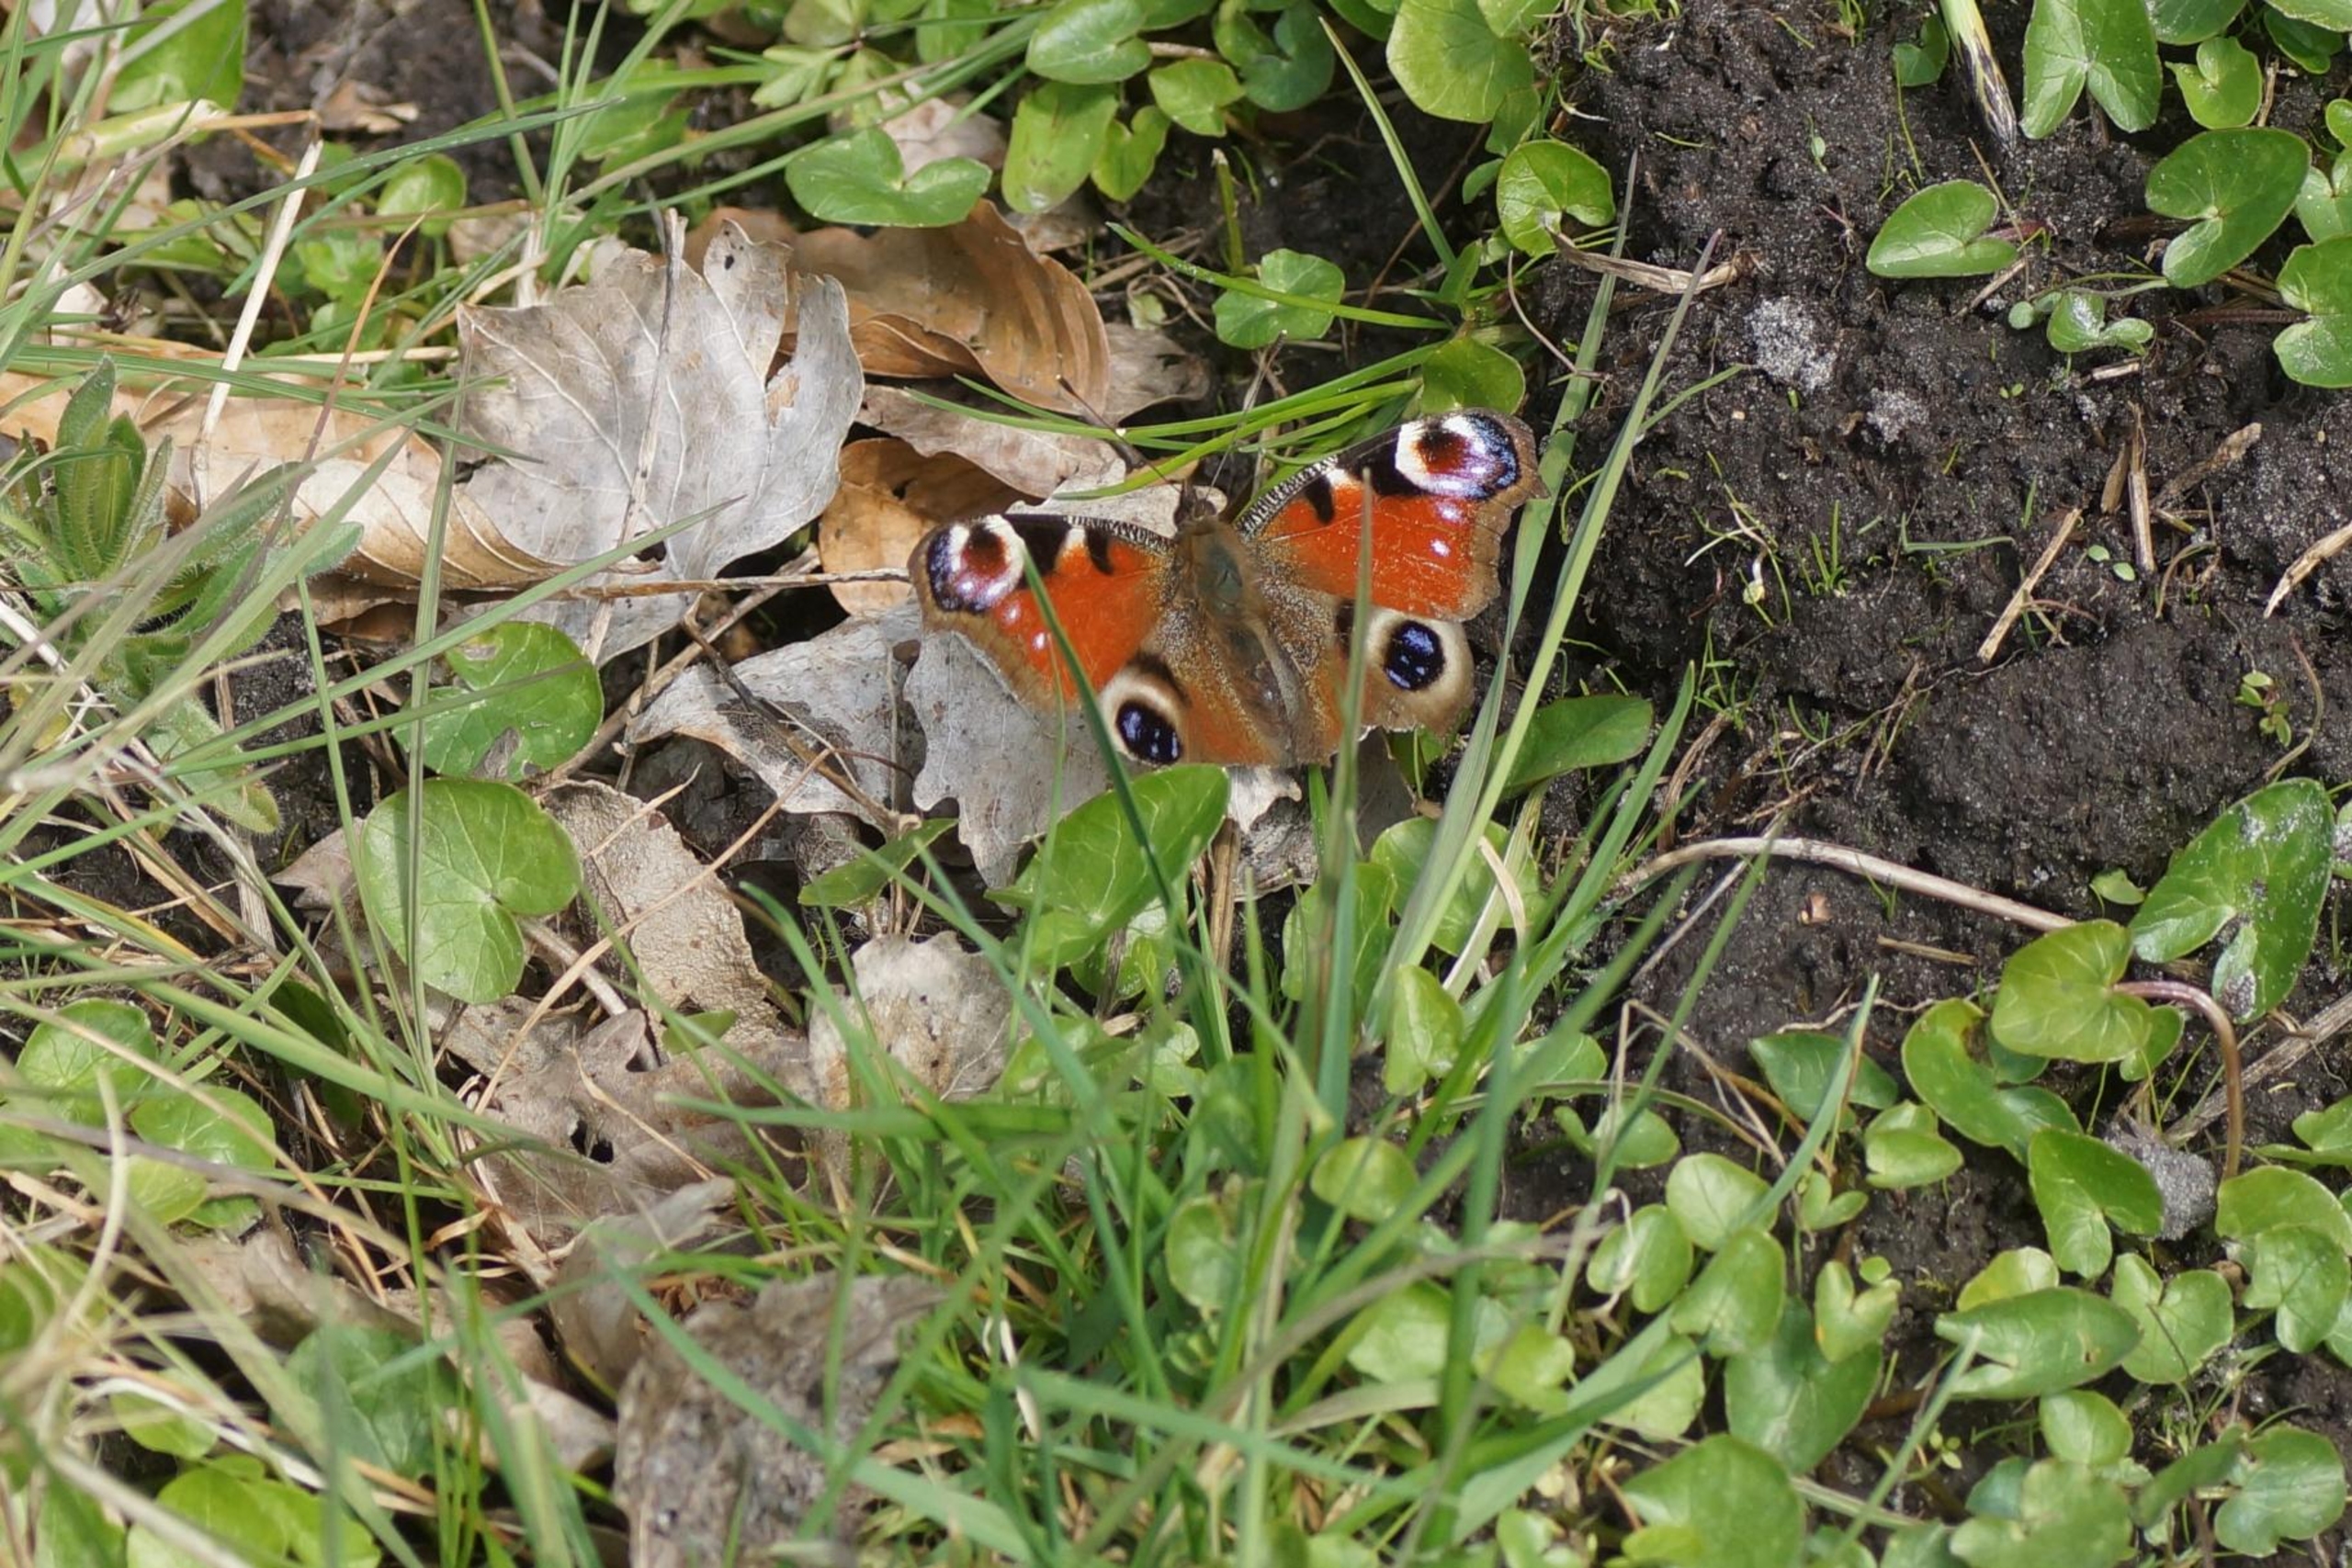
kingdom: Animalia
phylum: Arthropoda
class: Insecta
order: Lepidoptera
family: Nymphalidae
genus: Aglais
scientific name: Aglais io
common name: Dagpåfugleøje
